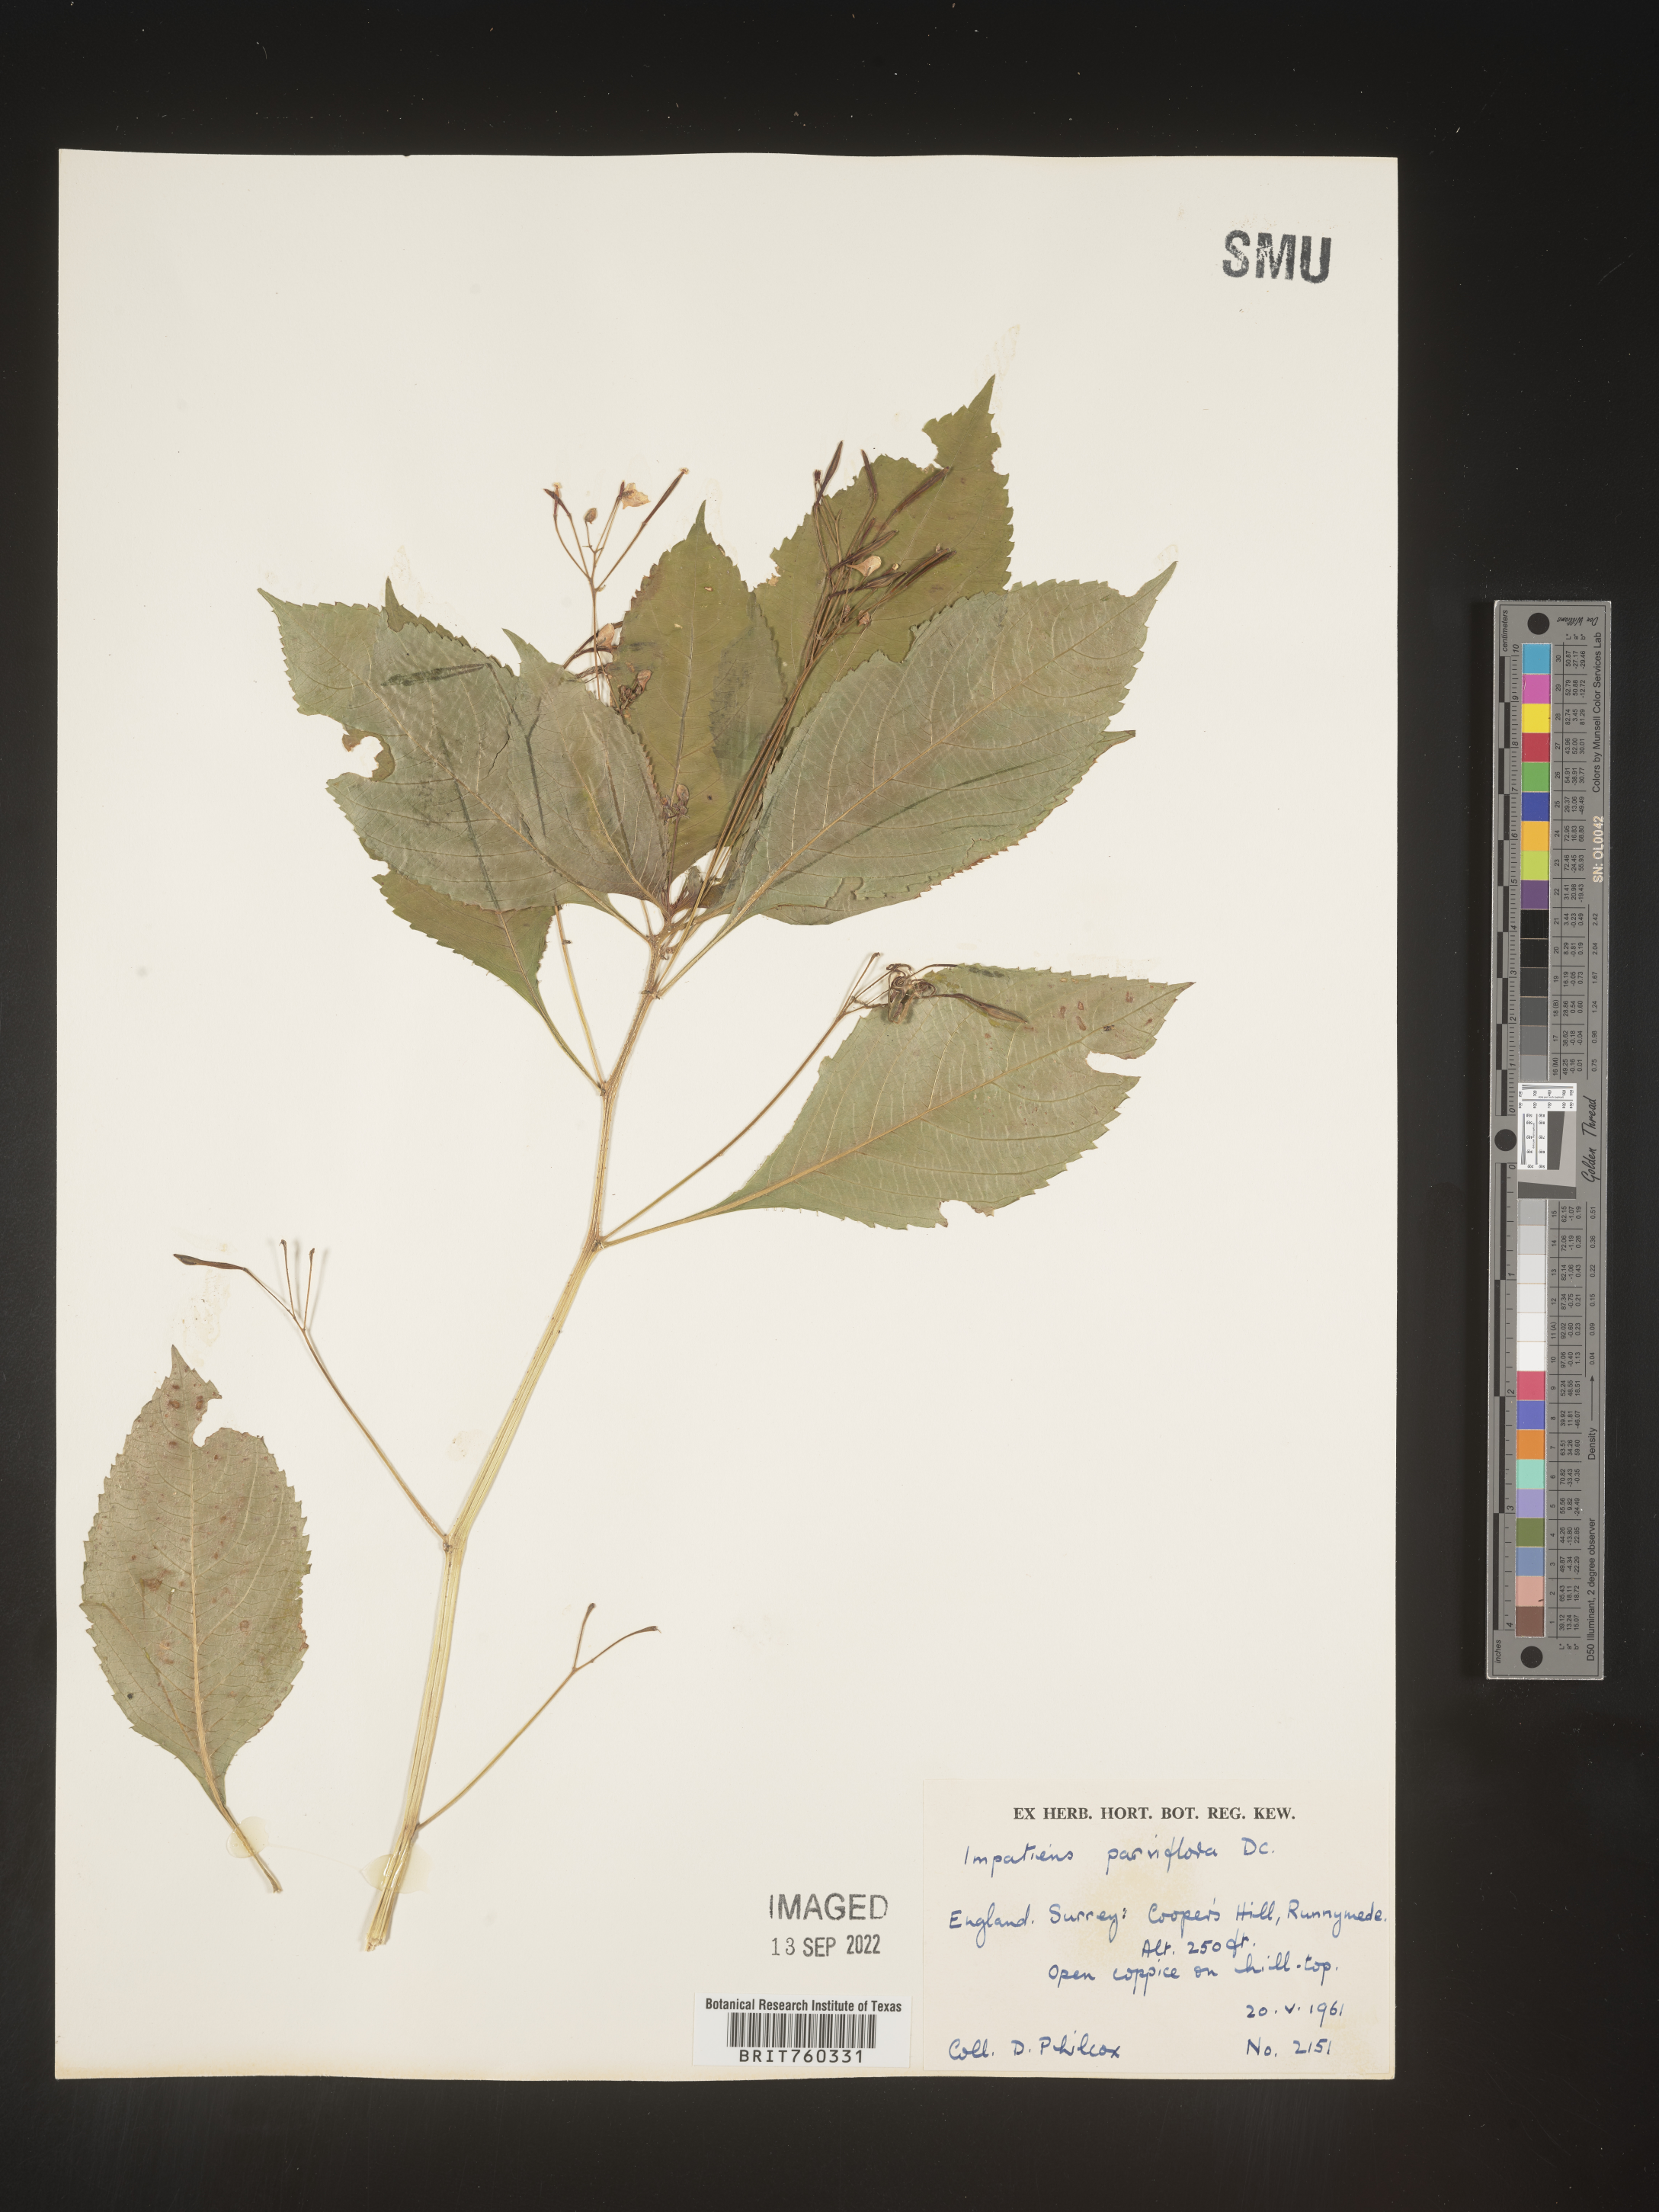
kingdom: Plantae
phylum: Tracheophyta
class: Magnoliopsida
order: Ericales
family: Balsaminaceae
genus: Impatiens
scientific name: Impatiens
